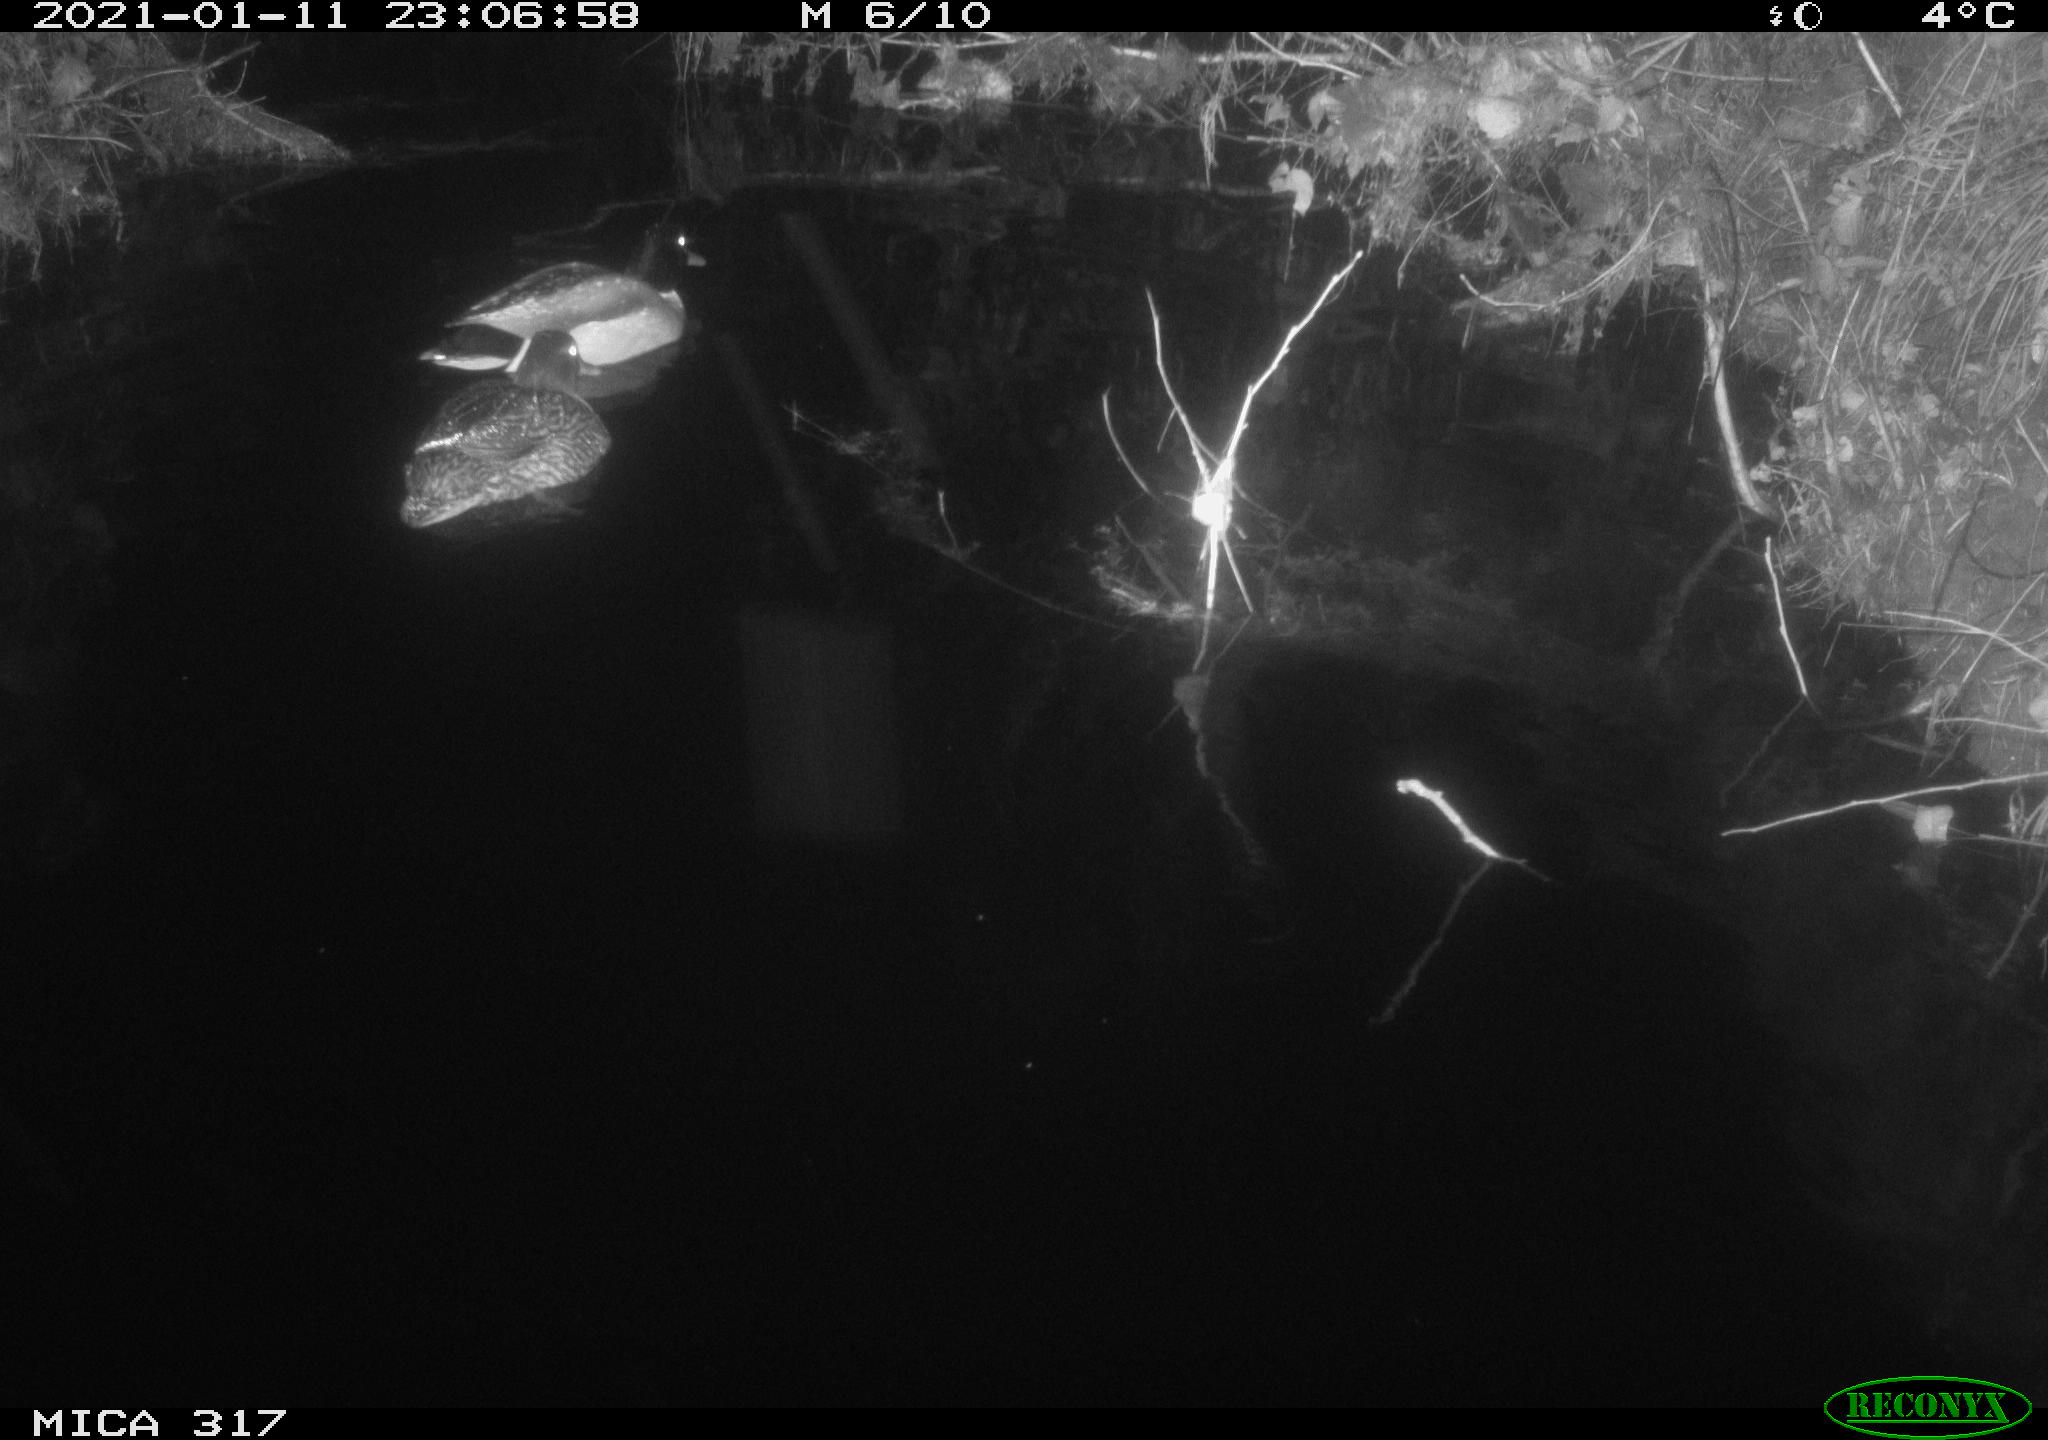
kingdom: Animalia
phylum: Chordata
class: Aves
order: Anseriformes
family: Anatidae
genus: Anas
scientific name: Anas platyrhynchos
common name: Mallard
